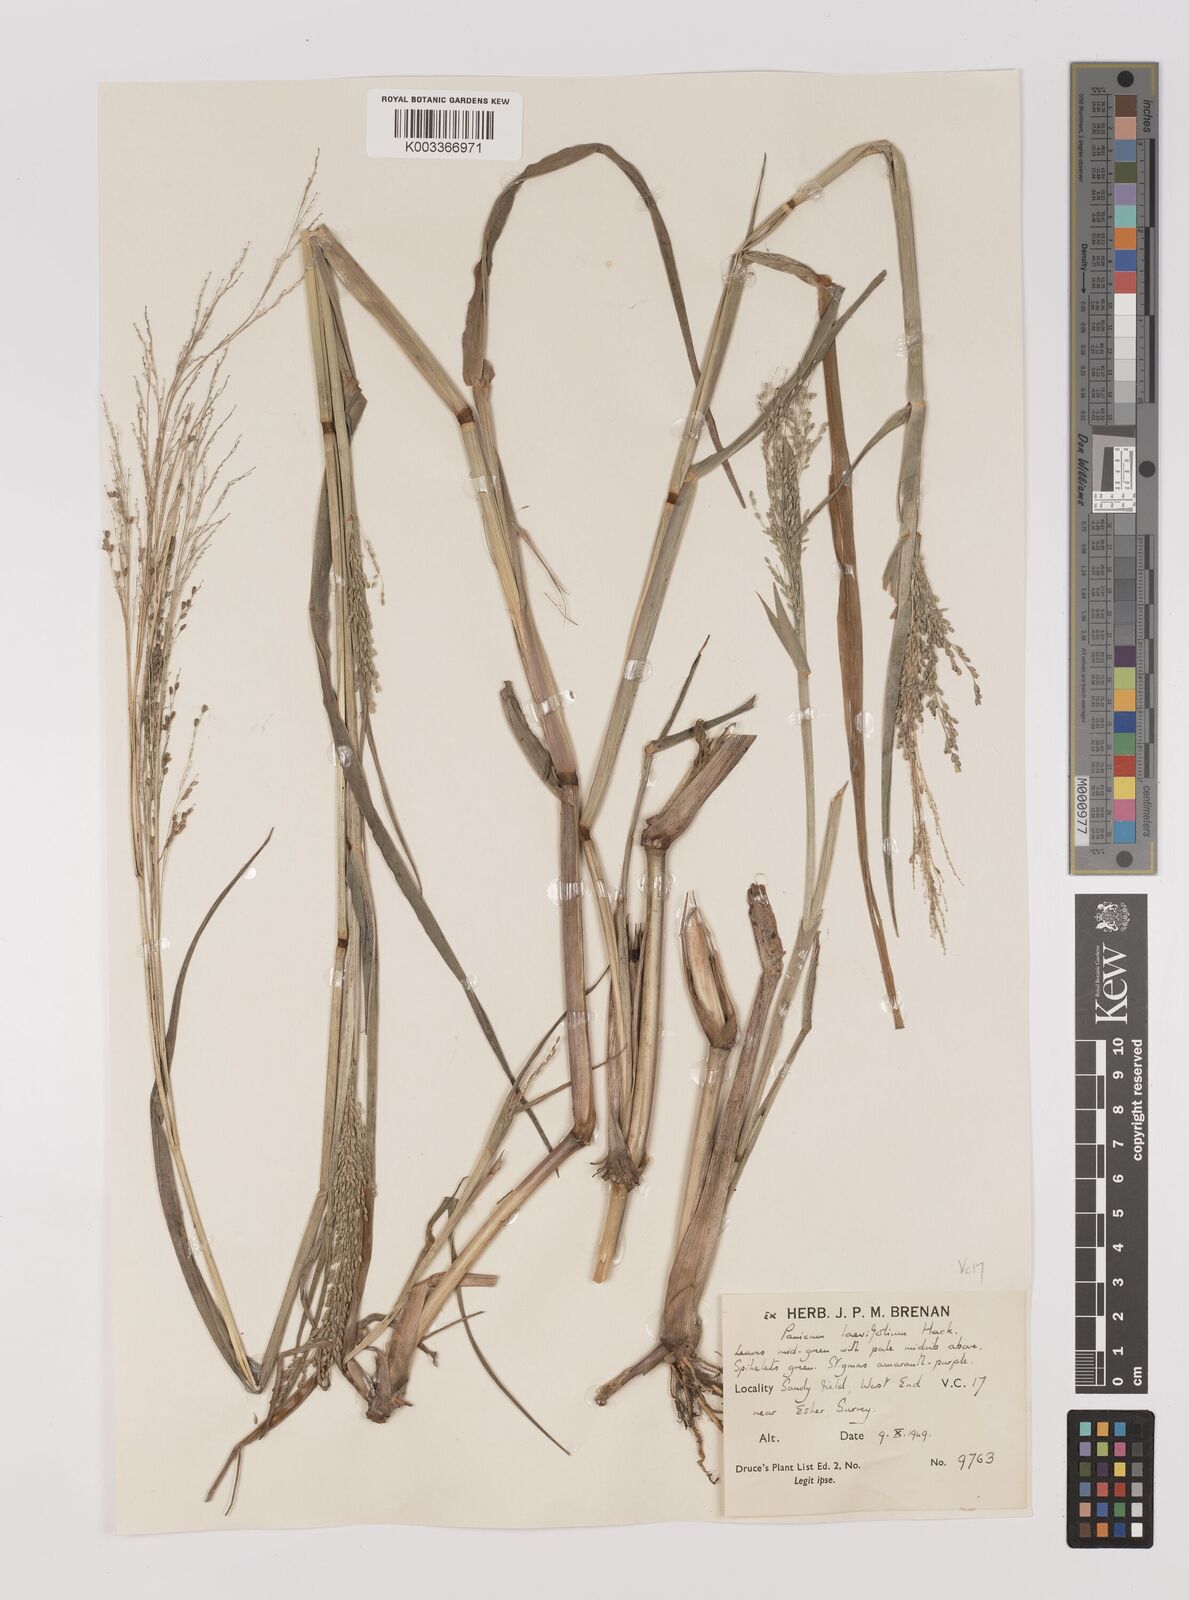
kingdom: Plantae
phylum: Tracheophyta
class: Liliopsida
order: Poales
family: Poaceae
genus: Panicum
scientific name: Panicum schinzii
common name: Sweet grass
